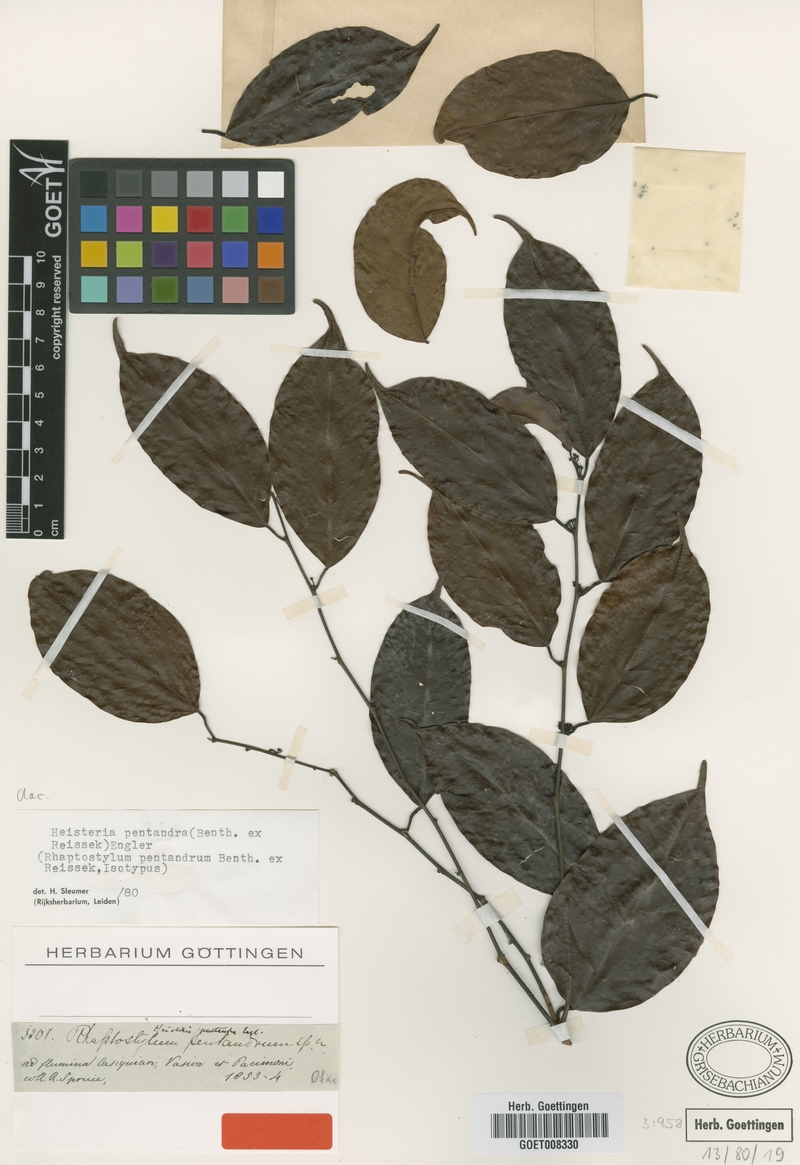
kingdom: Plantae
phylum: Tracheophyta
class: Magnoliopsida
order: Santalales
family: Erythropalaceae
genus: Heisteria
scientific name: Heisteria pentandra
